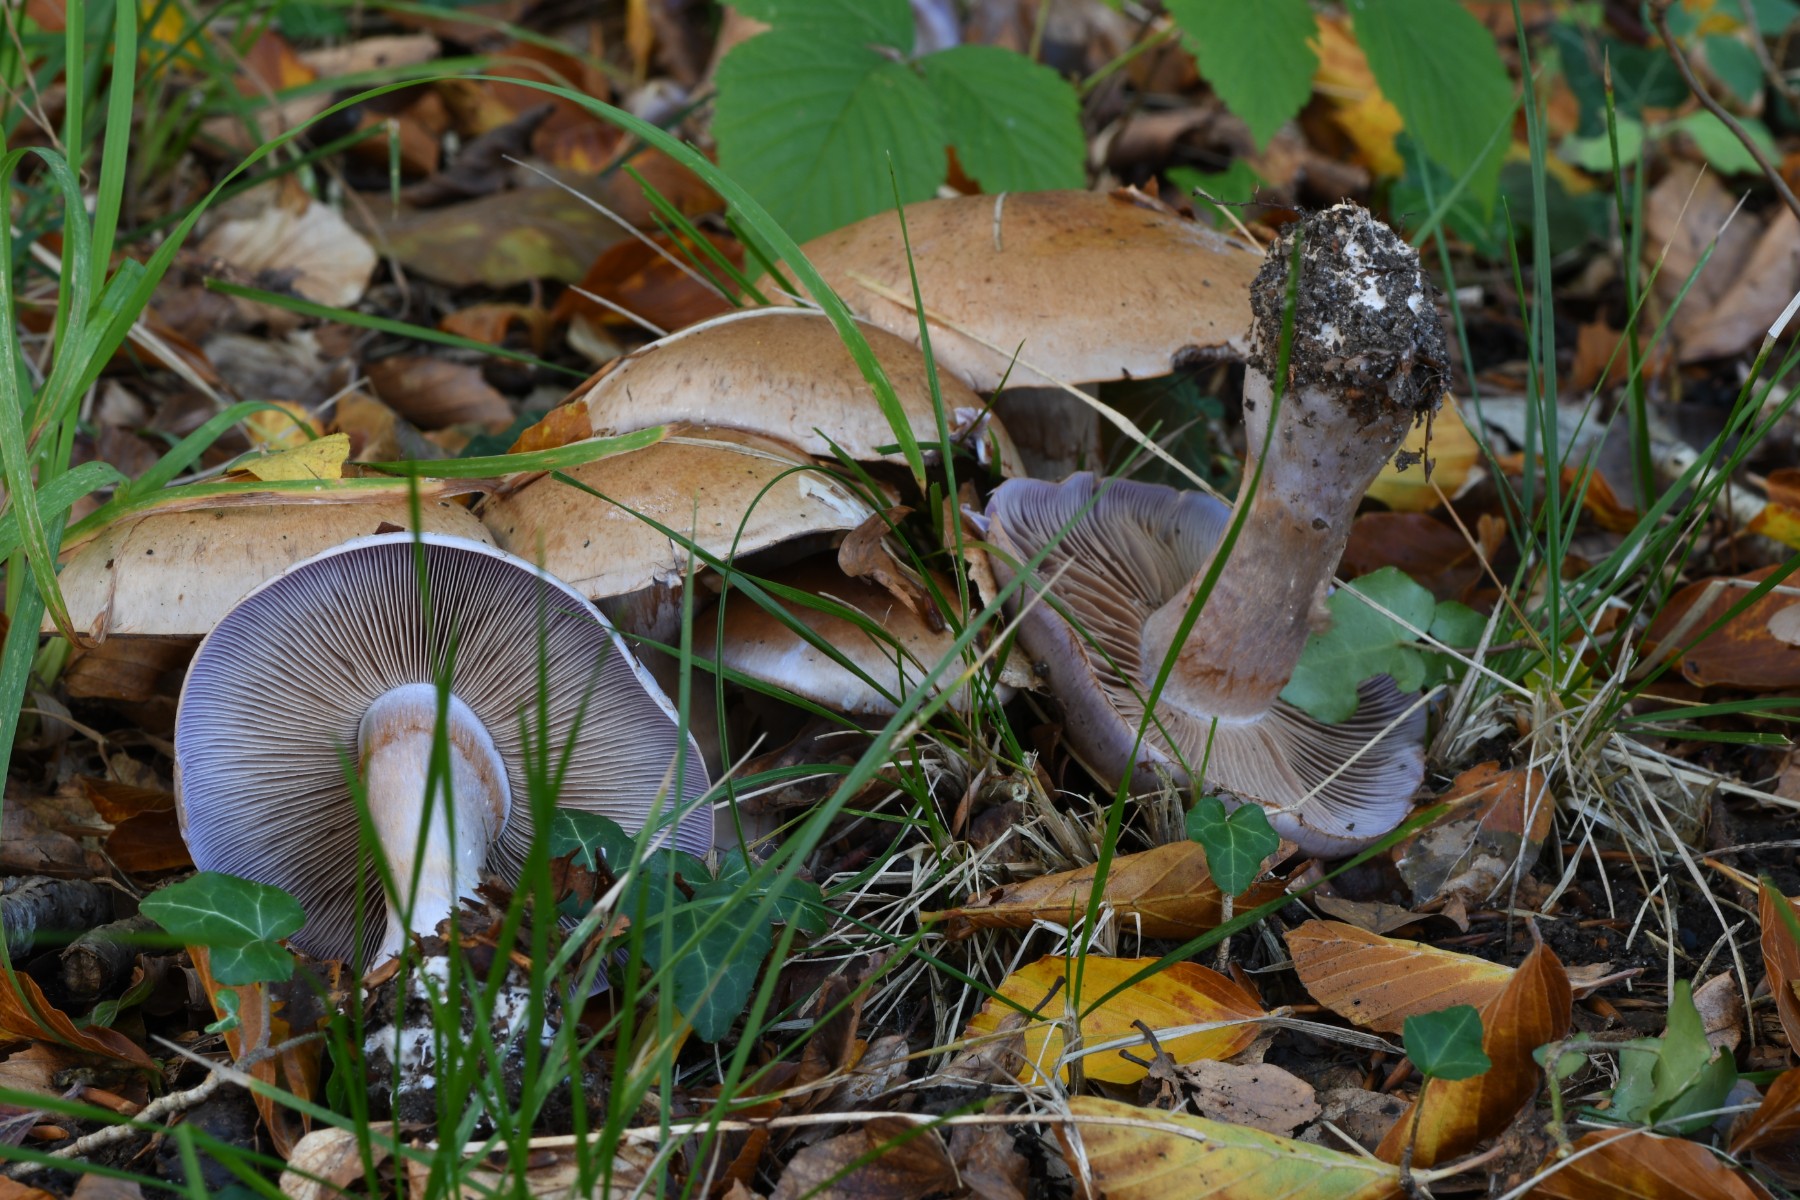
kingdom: Fungi
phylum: Basidiomycota
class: Agaricomycetes
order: Agaricales
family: Cortinariaceae
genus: Cortinarius
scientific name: Cortinarius largus
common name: violetrandet slørhat
